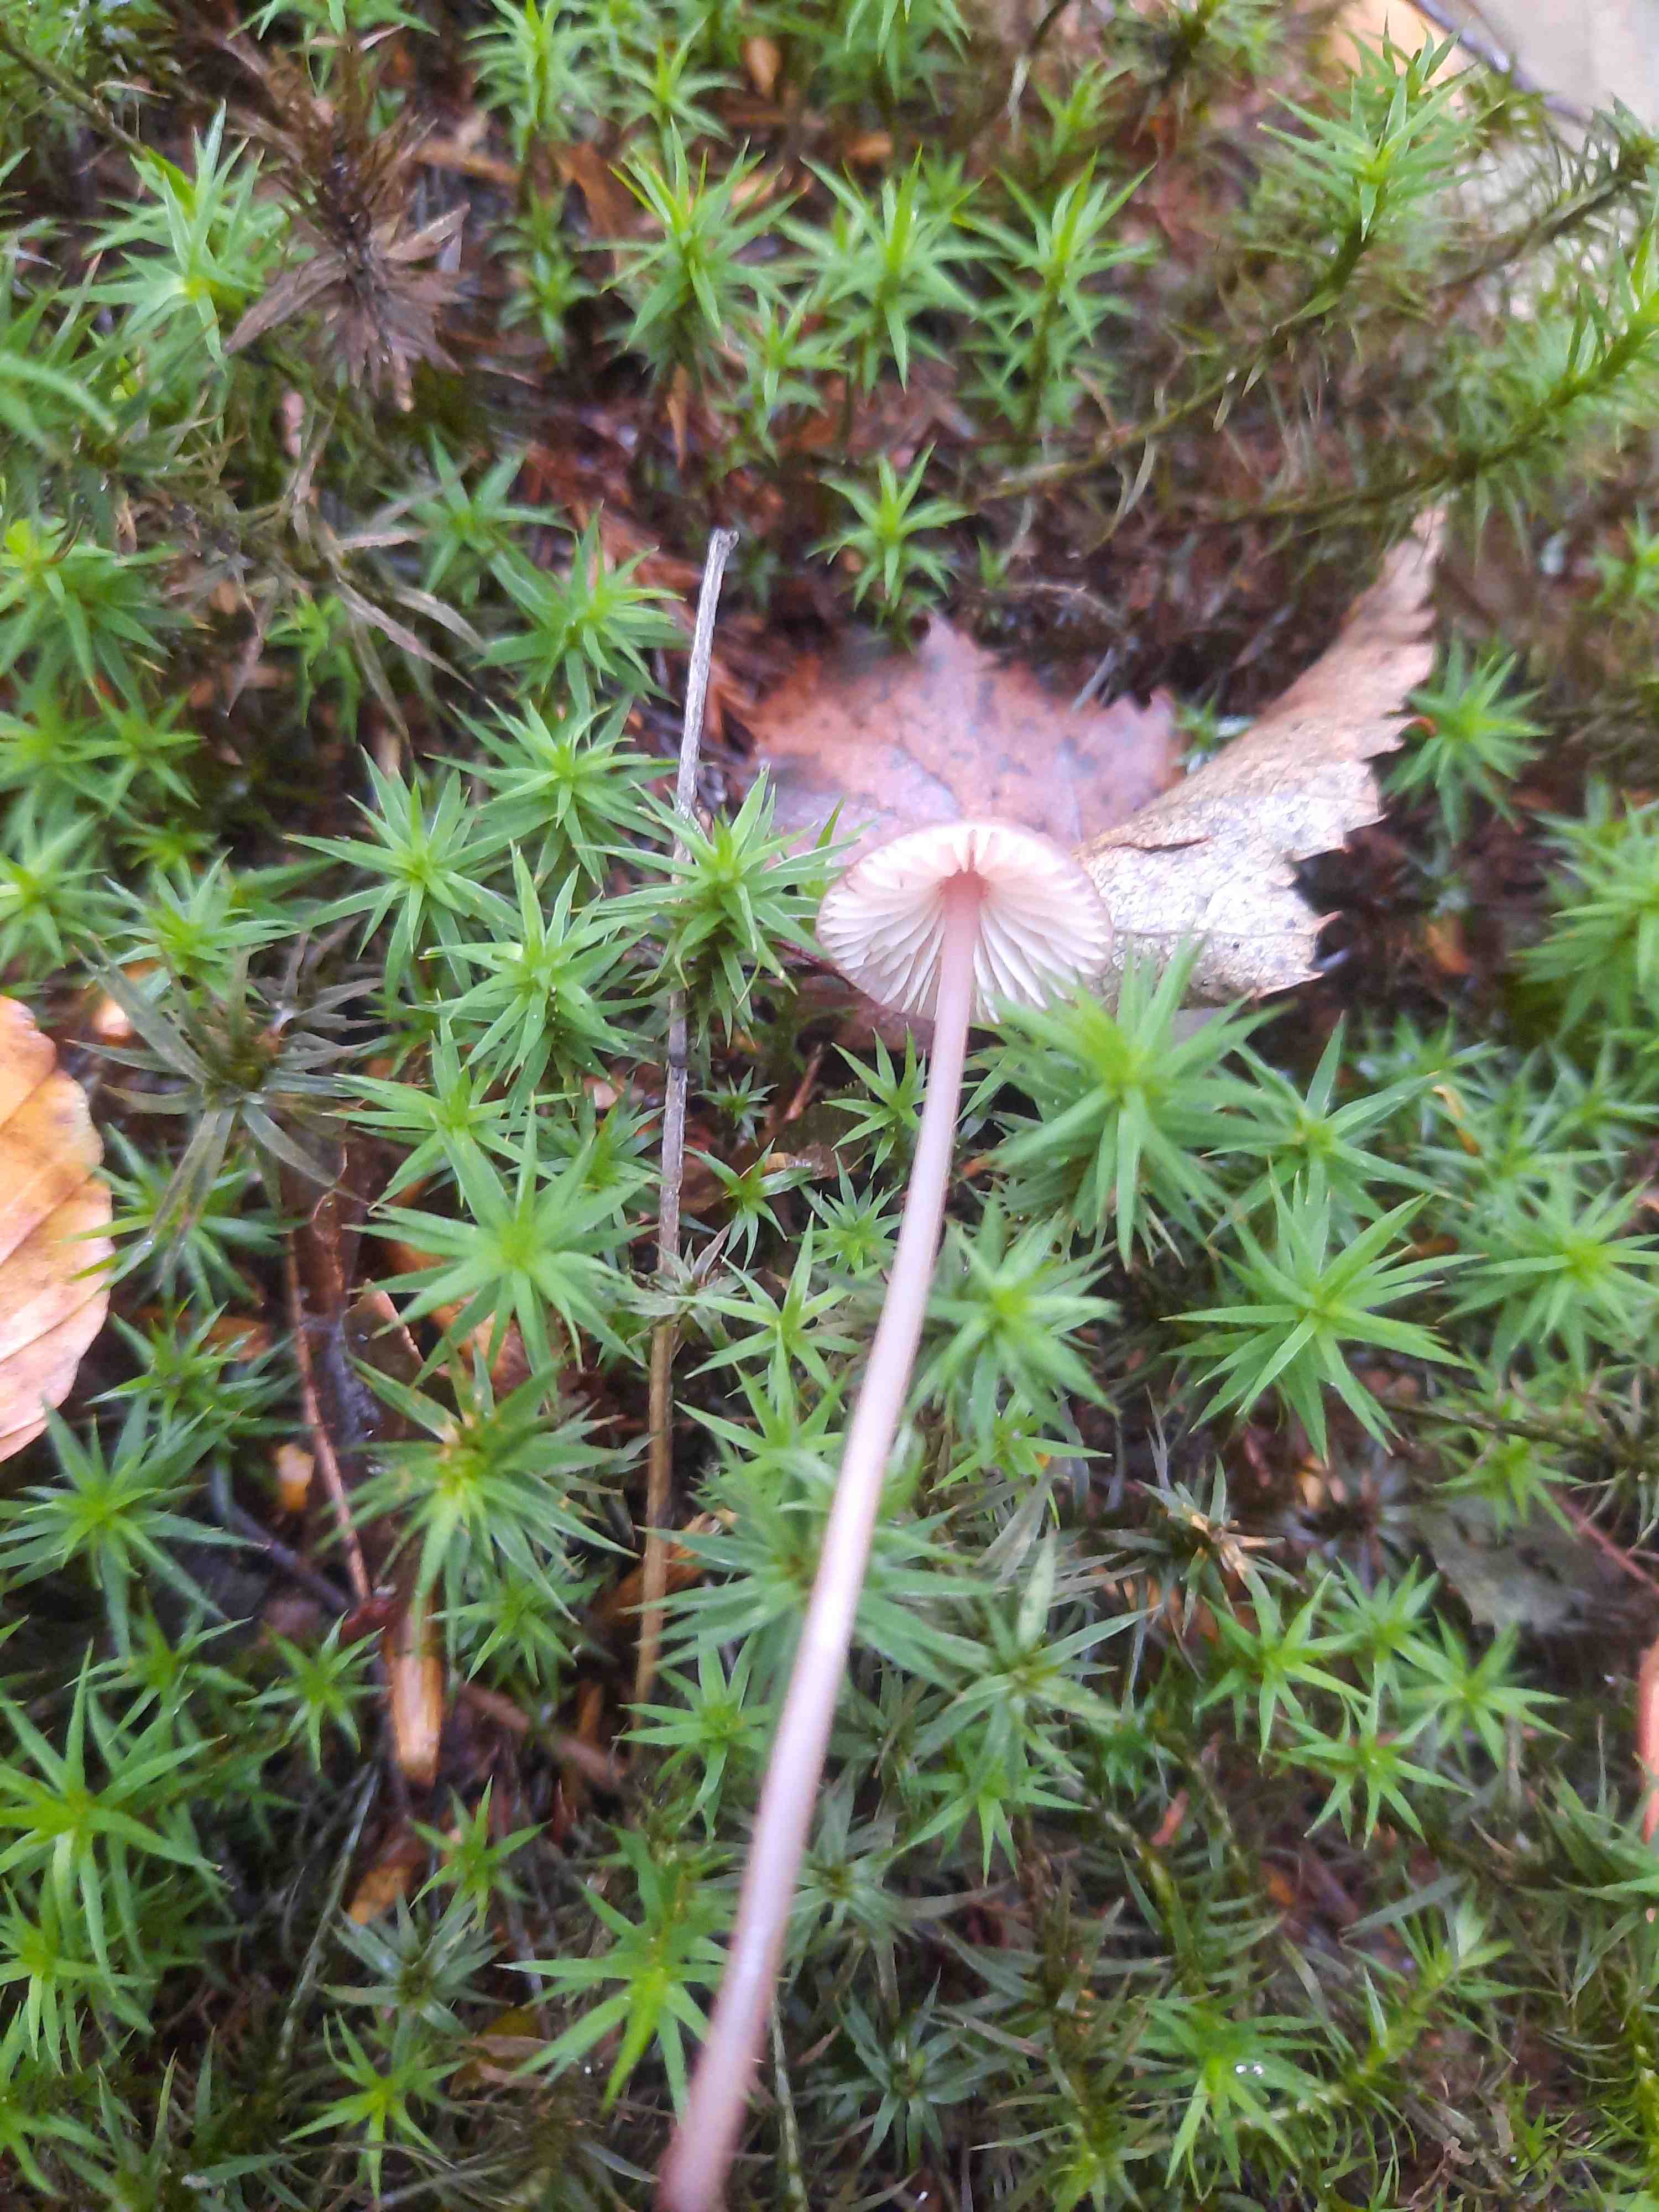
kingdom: Fungi
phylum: Basidiomycota
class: Agaricomycetes
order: Agaricales
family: Mycenaceae
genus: Mycena
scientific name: Mycena sanguinolenta
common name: rødmælket huesvamp
